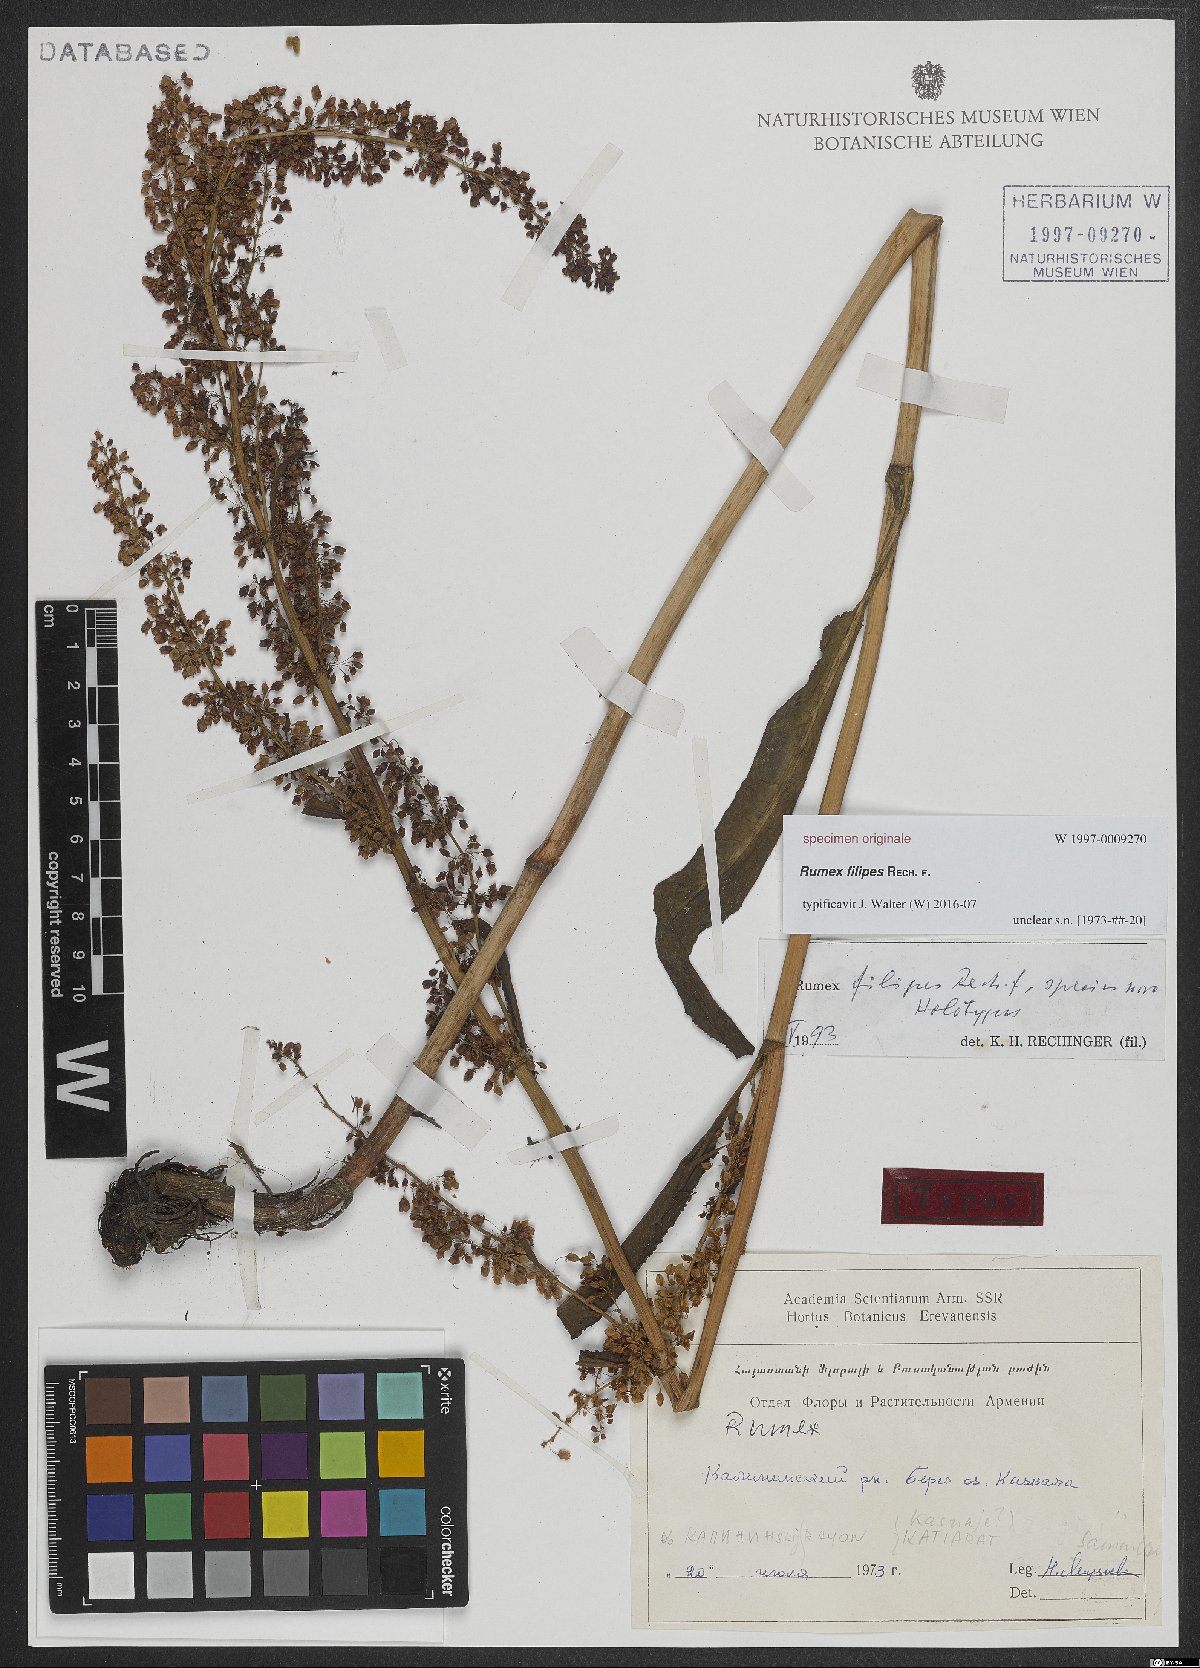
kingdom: Plantae
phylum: Tracheophyta
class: Magnoliopsida
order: Caryophyllales
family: Polygonaceae
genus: Rumex
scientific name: Rumex
